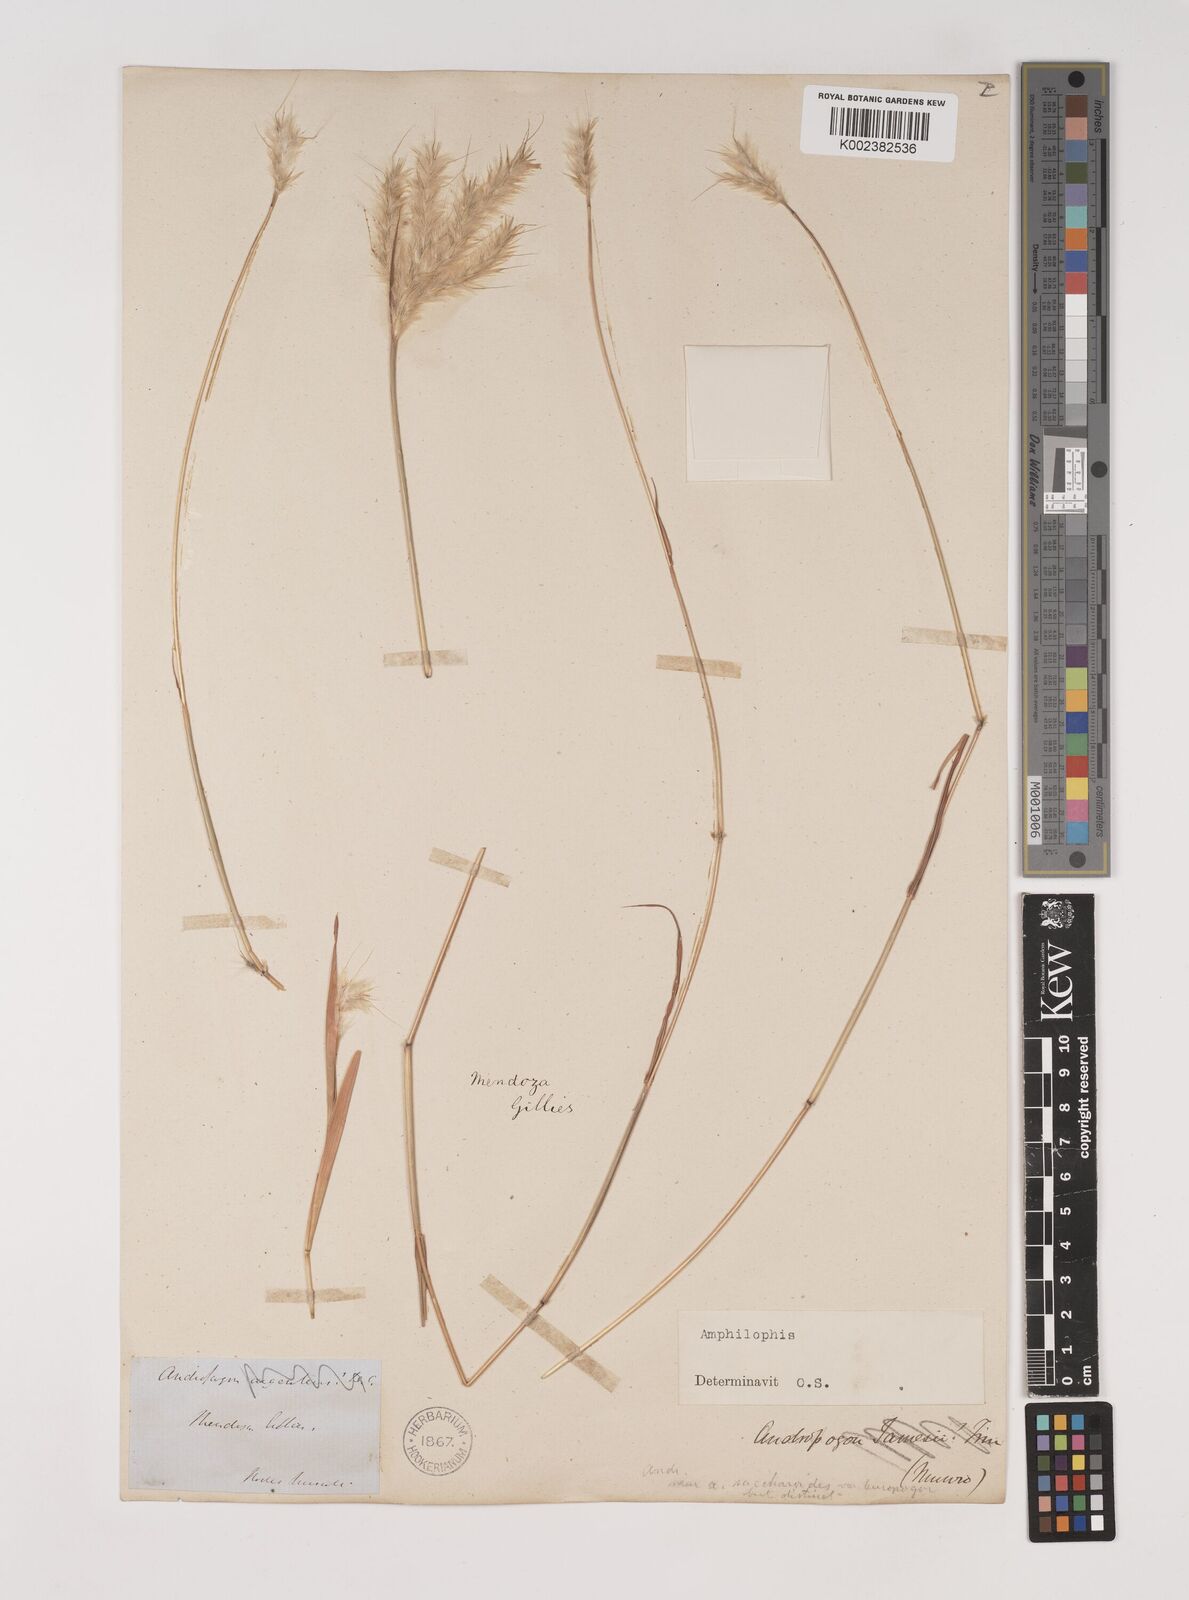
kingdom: Plantae
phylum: Tracheophyta
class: Liliopsida
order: Poales
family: Poaceae
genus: Bothriochloa
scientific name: Bothriochloa springfieldii
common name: Springfield bluestem
